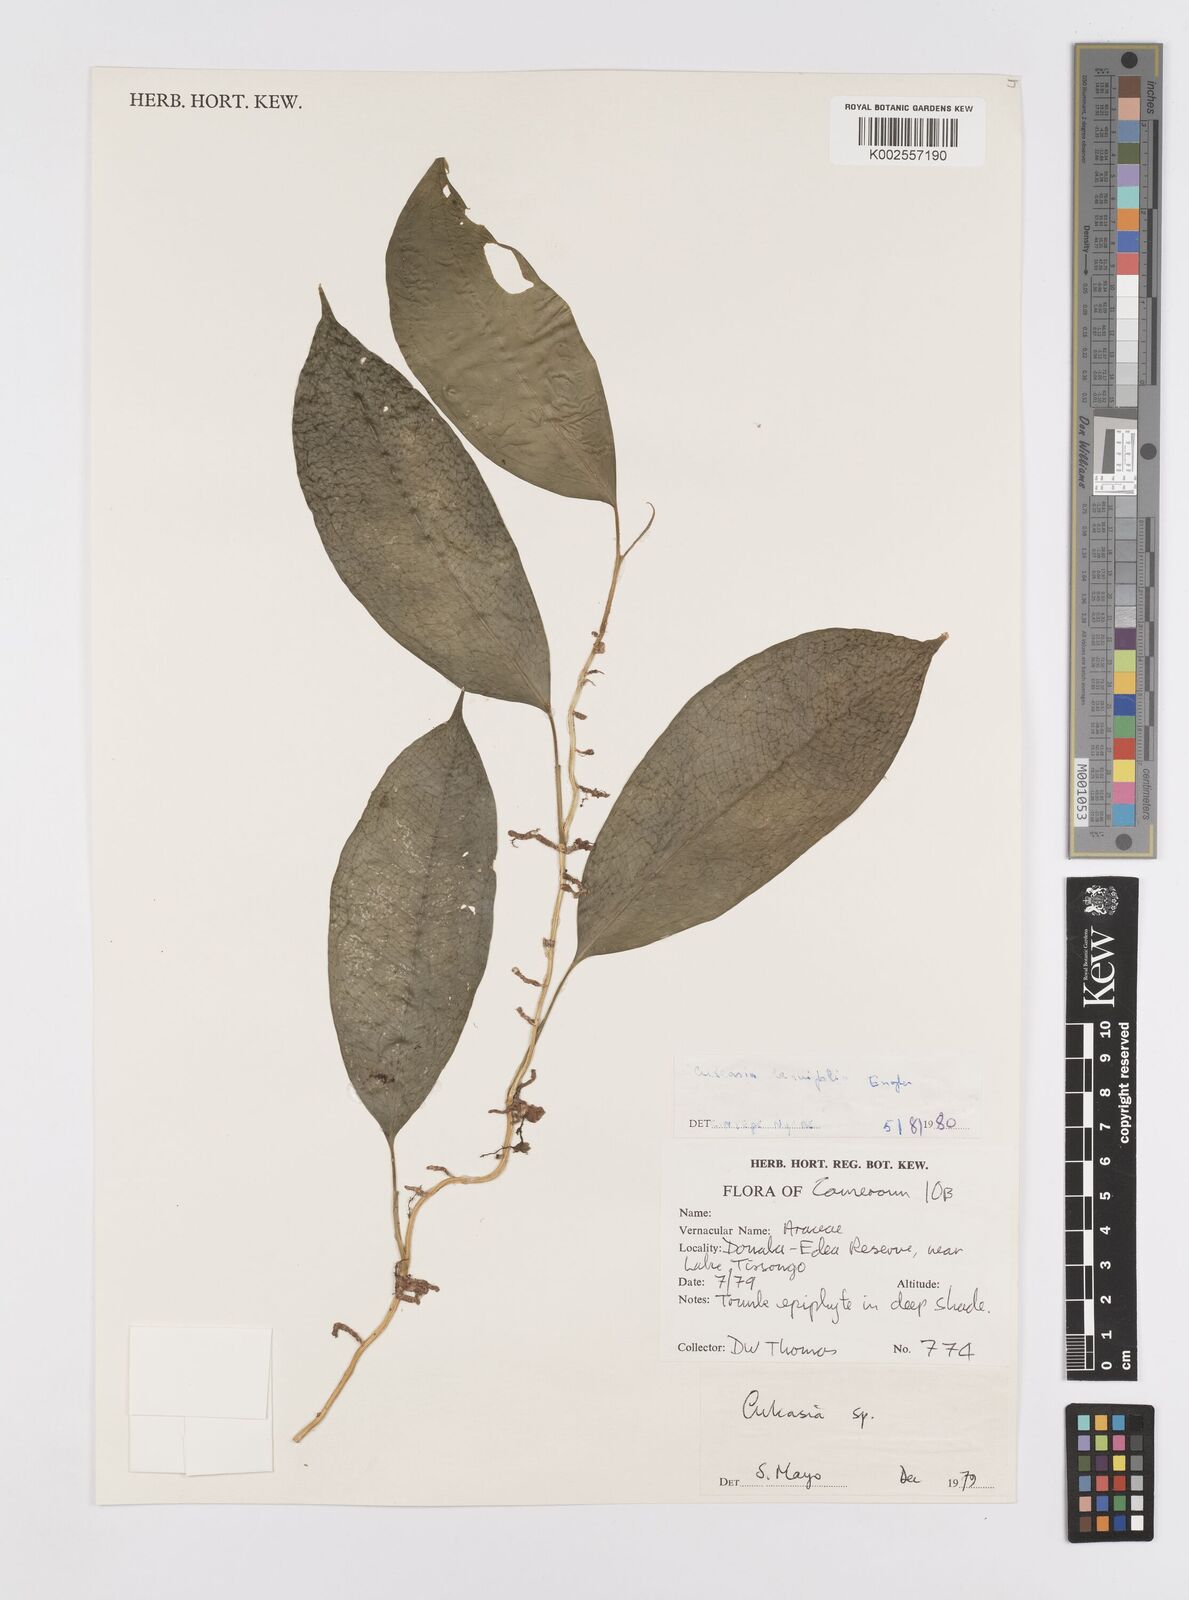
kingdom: Plantae
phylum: Tracheophyta
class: Liliopsida
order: Alismatales
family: Araceae
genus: Culcasia
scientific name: Culcasia tenuifolia
